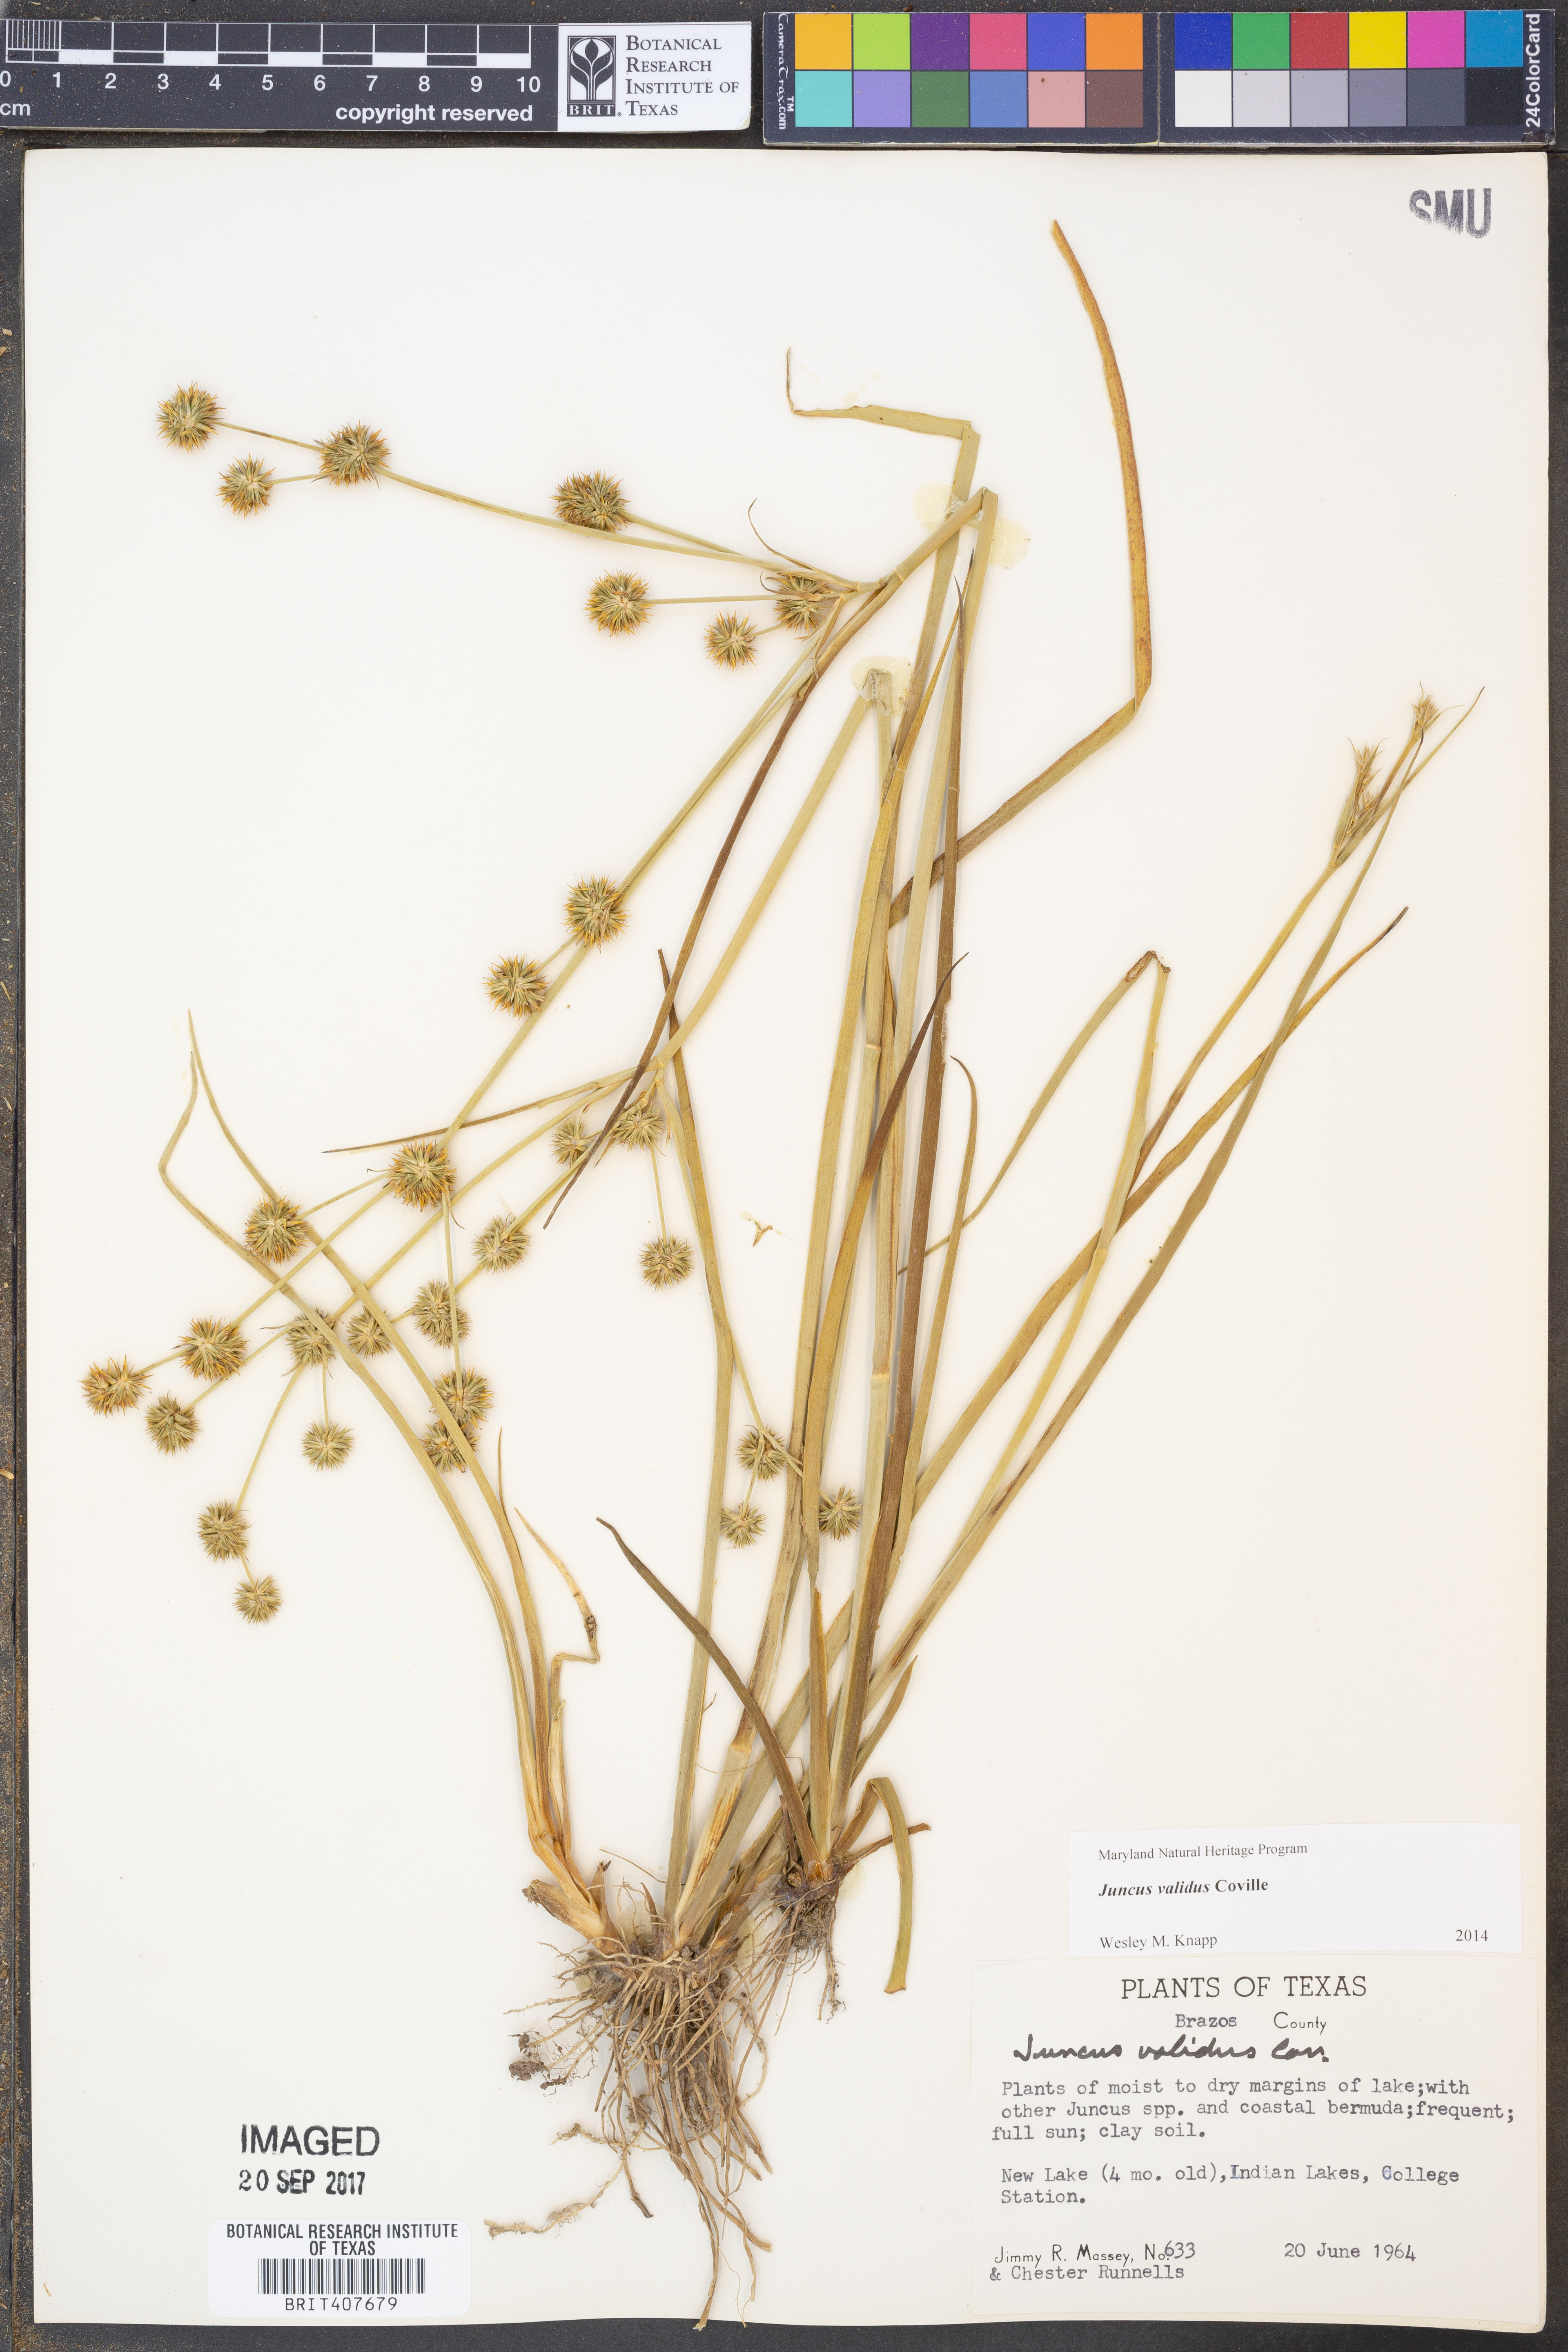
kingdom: Plantae
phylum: Tracheophyta
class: Liliopsida
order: Poales
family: Juncaceae
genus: Juncus
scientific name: Juncus validus
